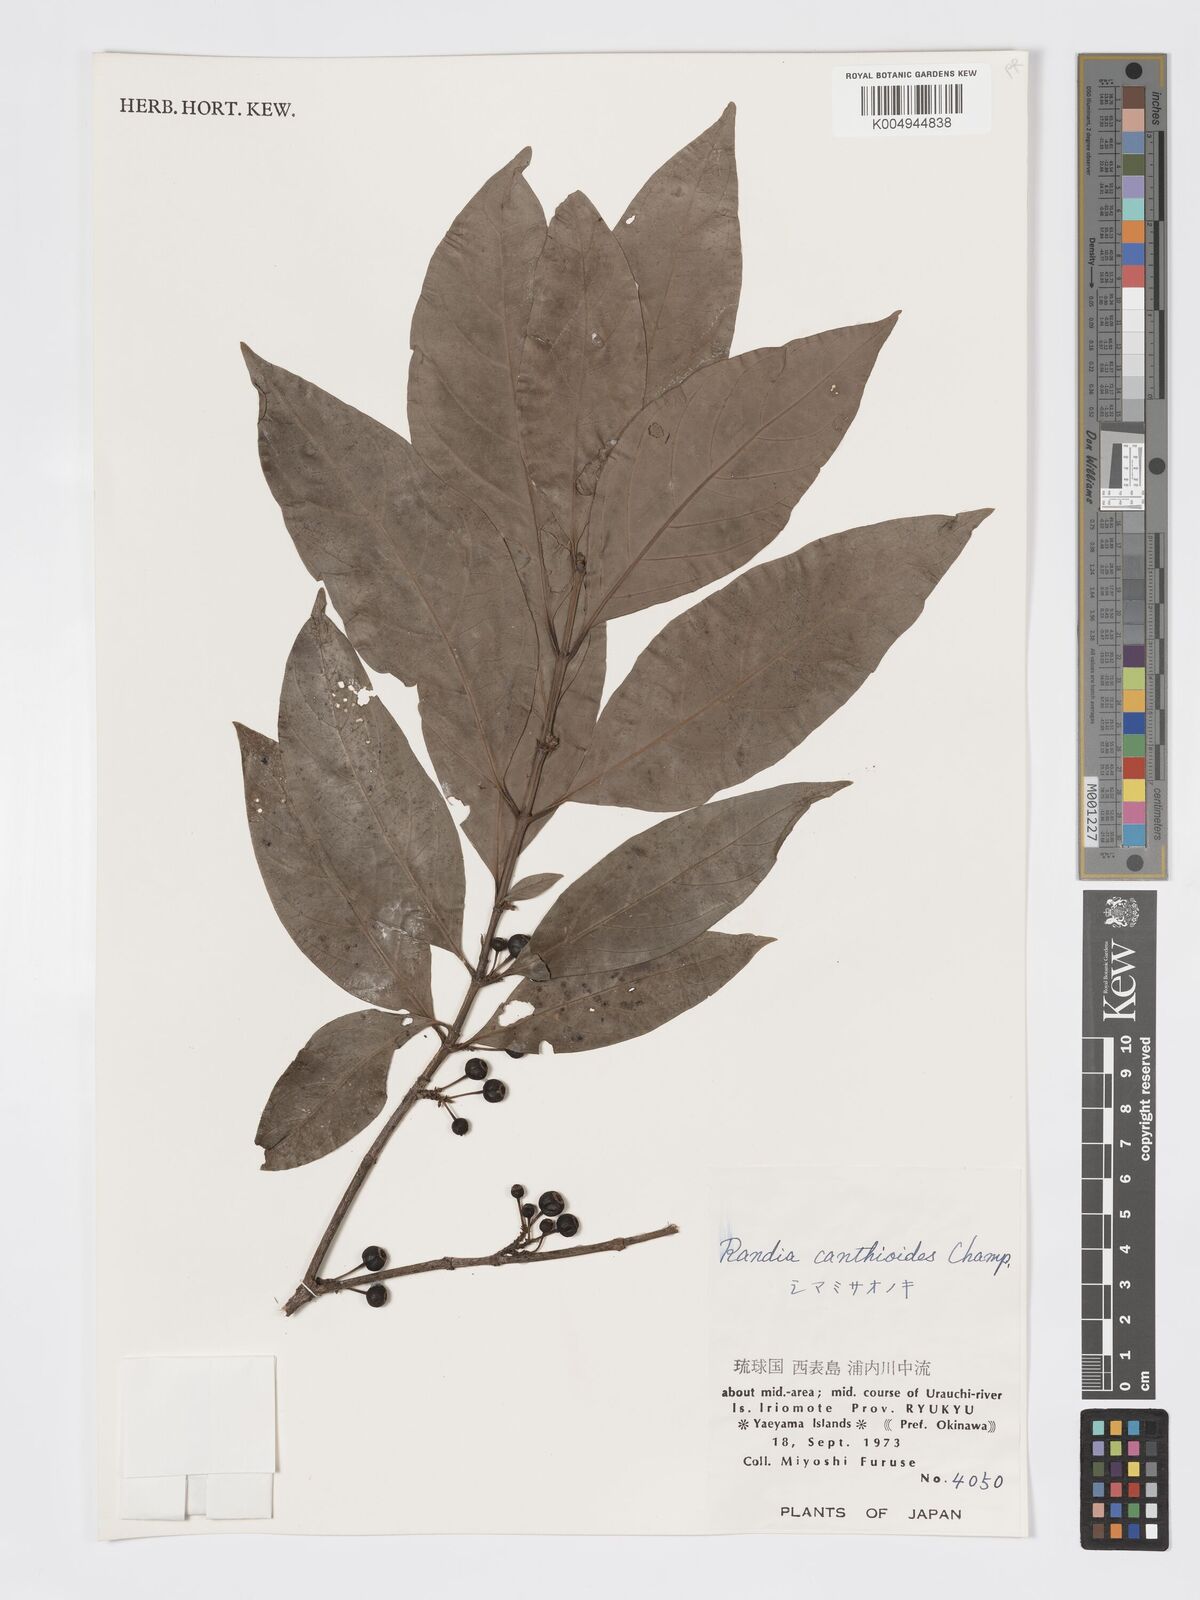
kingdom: Plantae
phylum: Tracheophyta
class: Magnoliopsida
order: Gentianales
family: Rubiaceae
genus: Aidia
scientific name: Aidia canthioides
